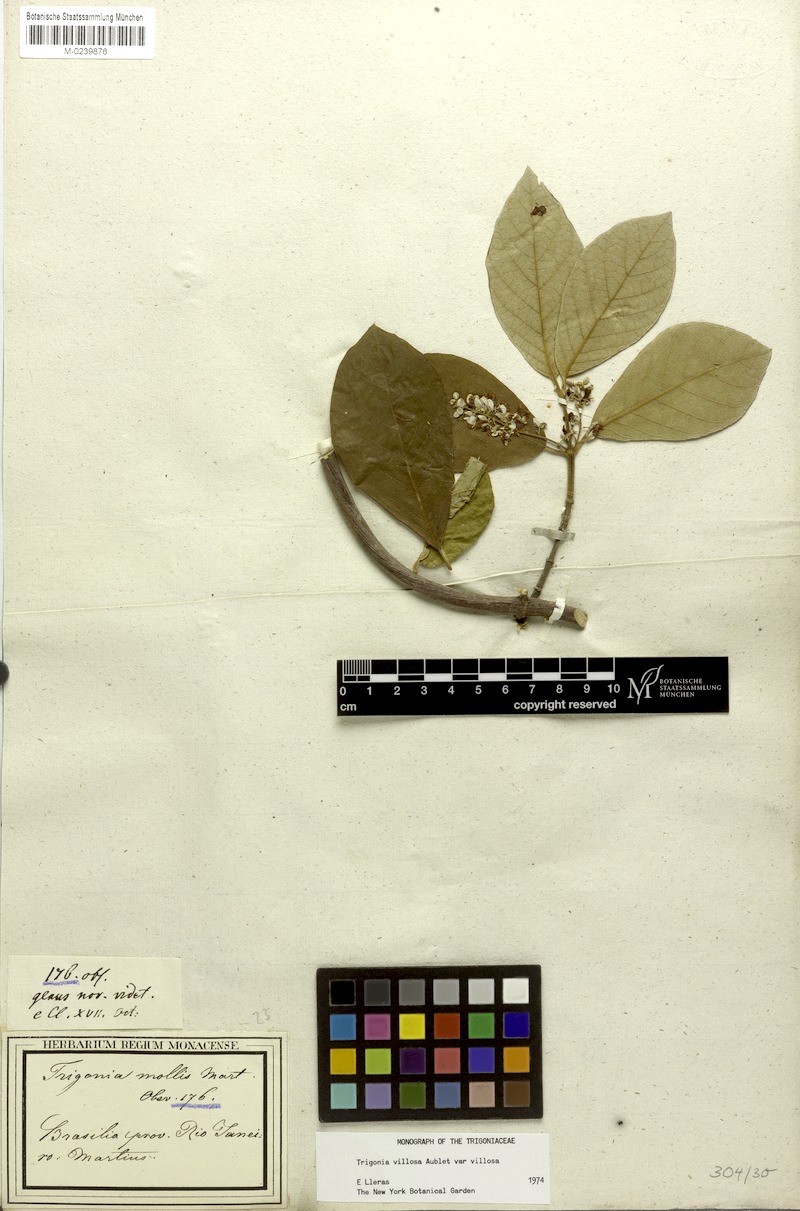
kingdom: Plantae
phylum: Tracheophyta
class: Magnoliopsida
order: Malpighiales
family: Trigoniaceae
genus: Trigonia
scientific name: Trigonia villosa
